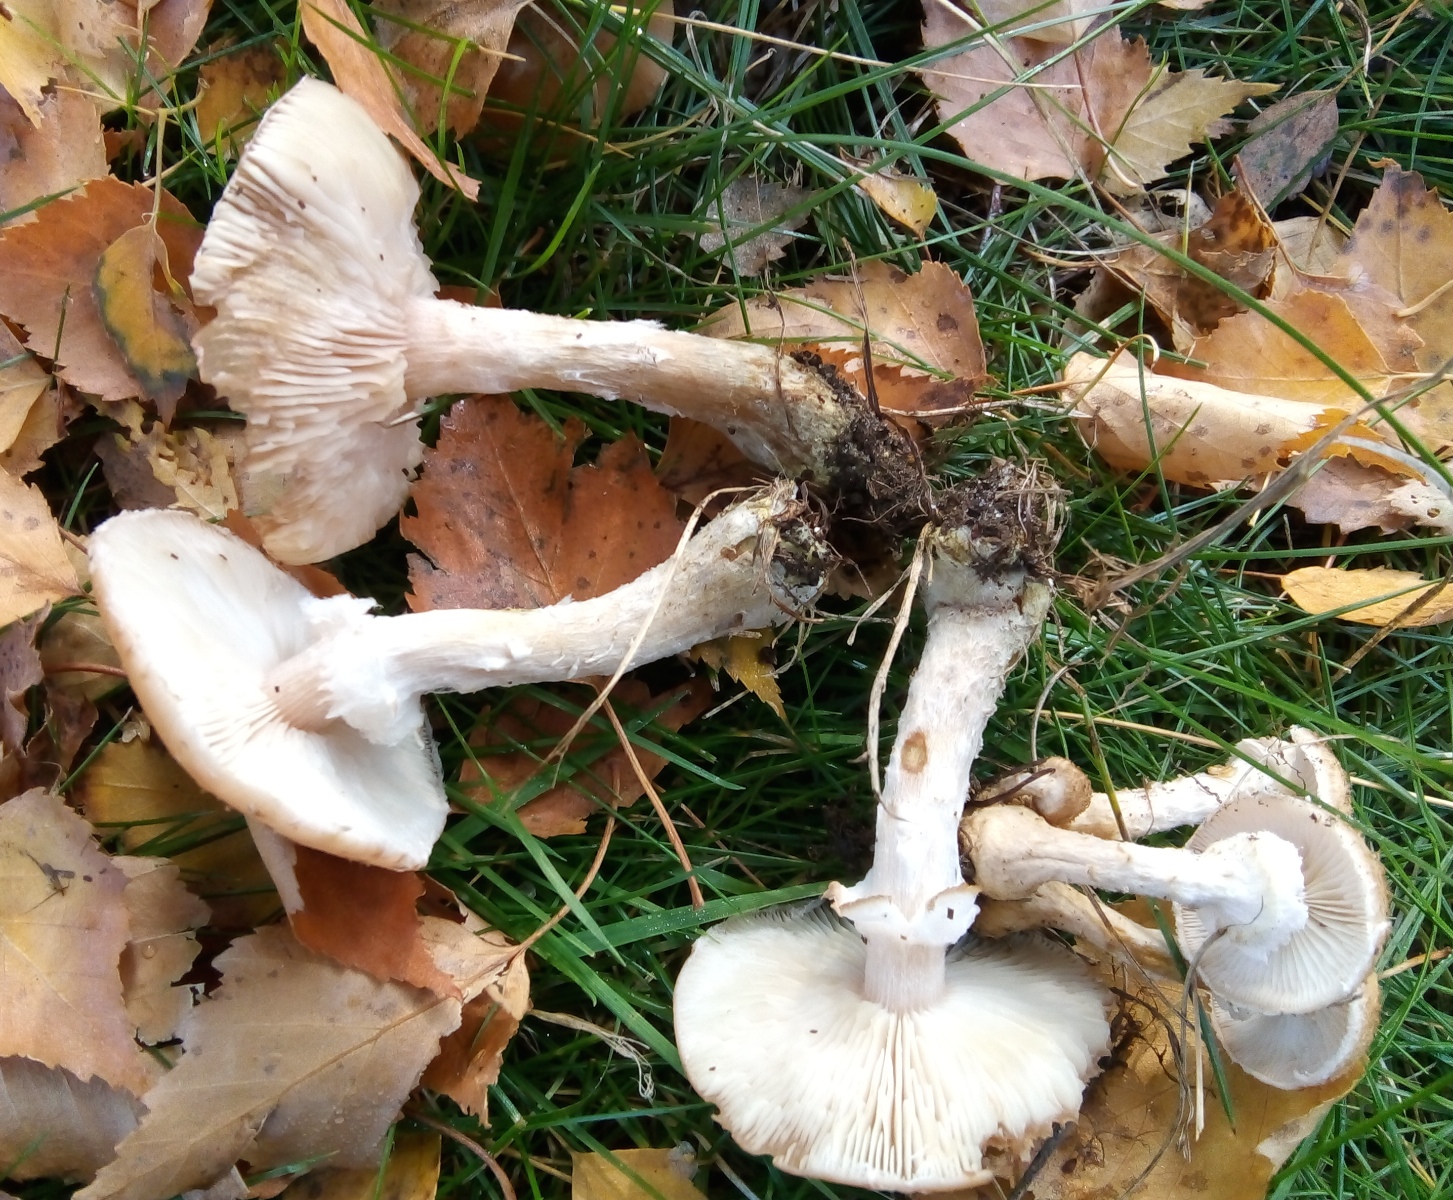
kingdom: Fungi
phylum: Basidiomycota
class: Agaricomycetes
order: Agaricales
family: Physalacriaceae
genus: Armillaria
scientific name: Armillaria lutea
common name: køllestokket honningsvamp
